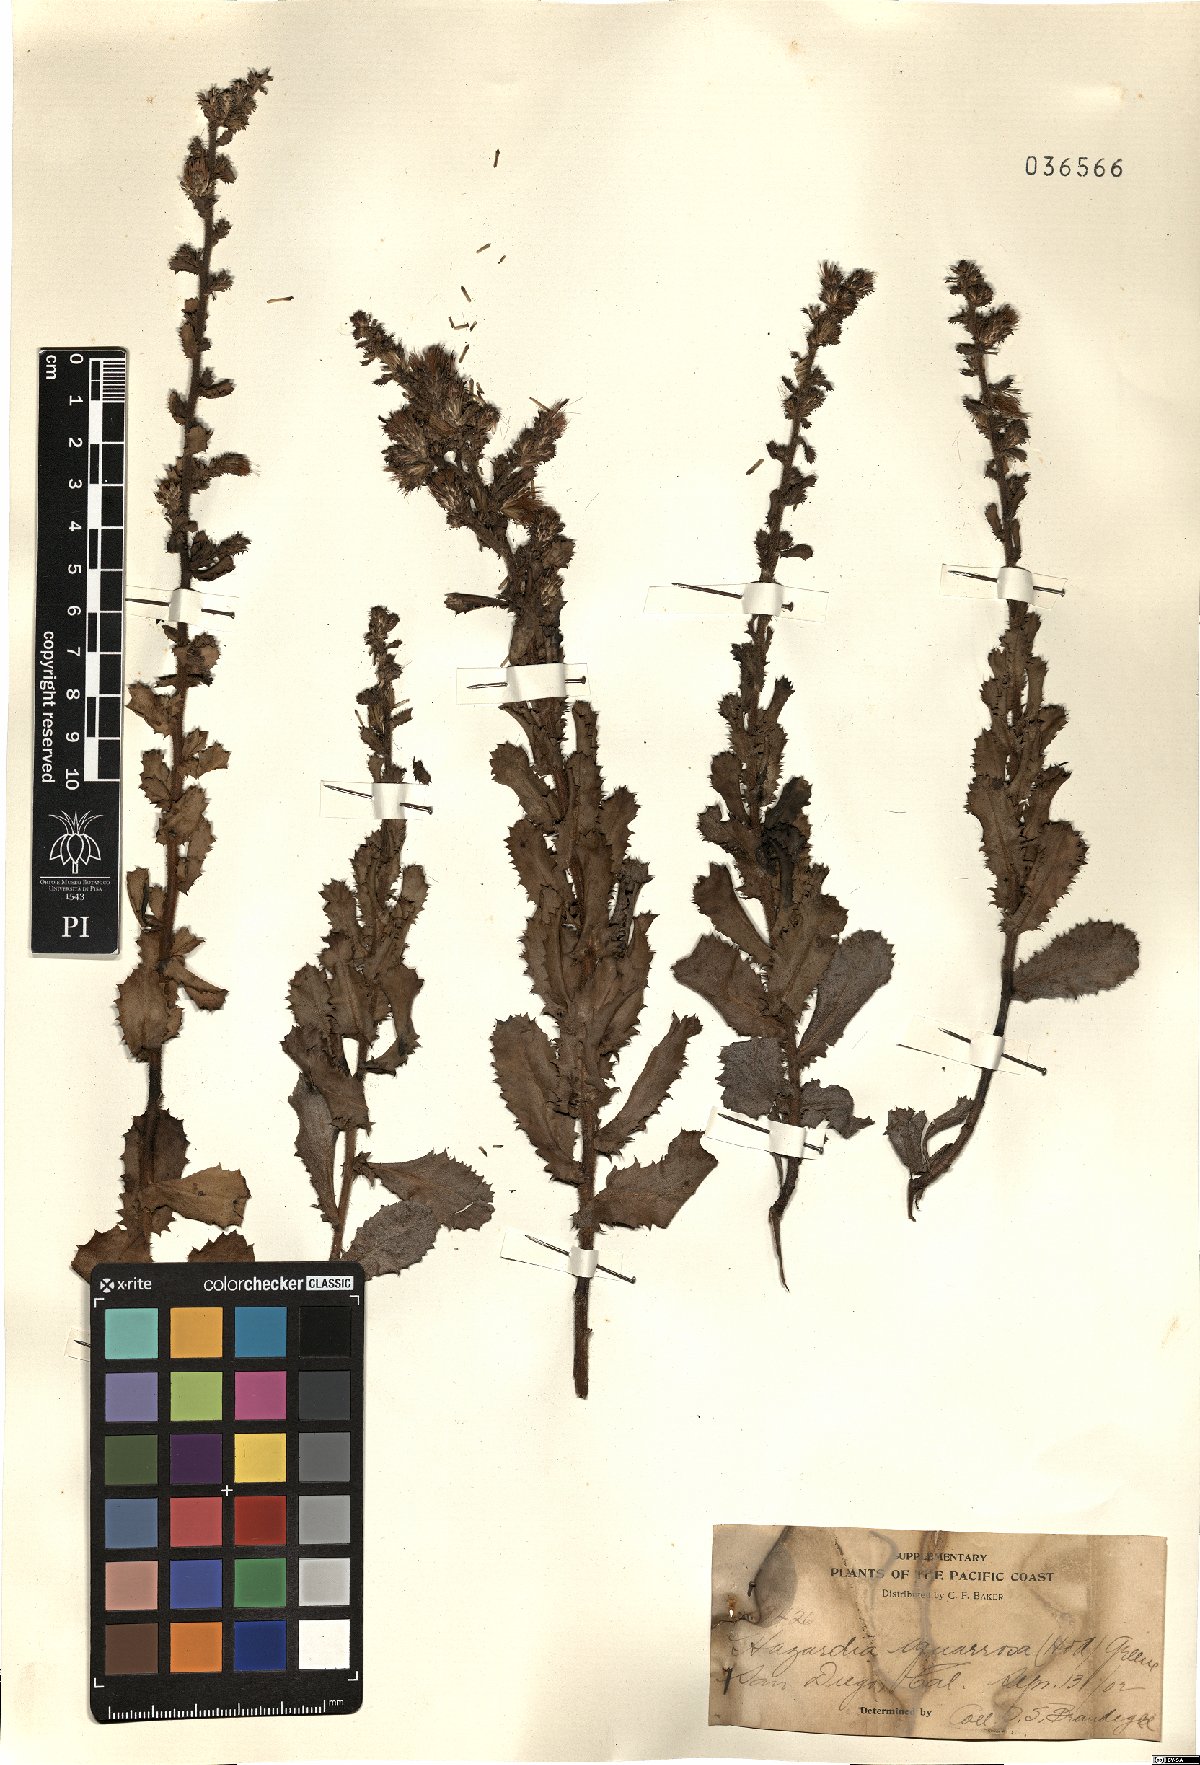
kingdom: Plantae
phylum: Tracheophyta
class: Magnoliopsida
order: Asterales
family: Asteraceae
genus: Hazardia
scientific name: Hazardia squarrosa
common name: Saw-tooth goldenbush
